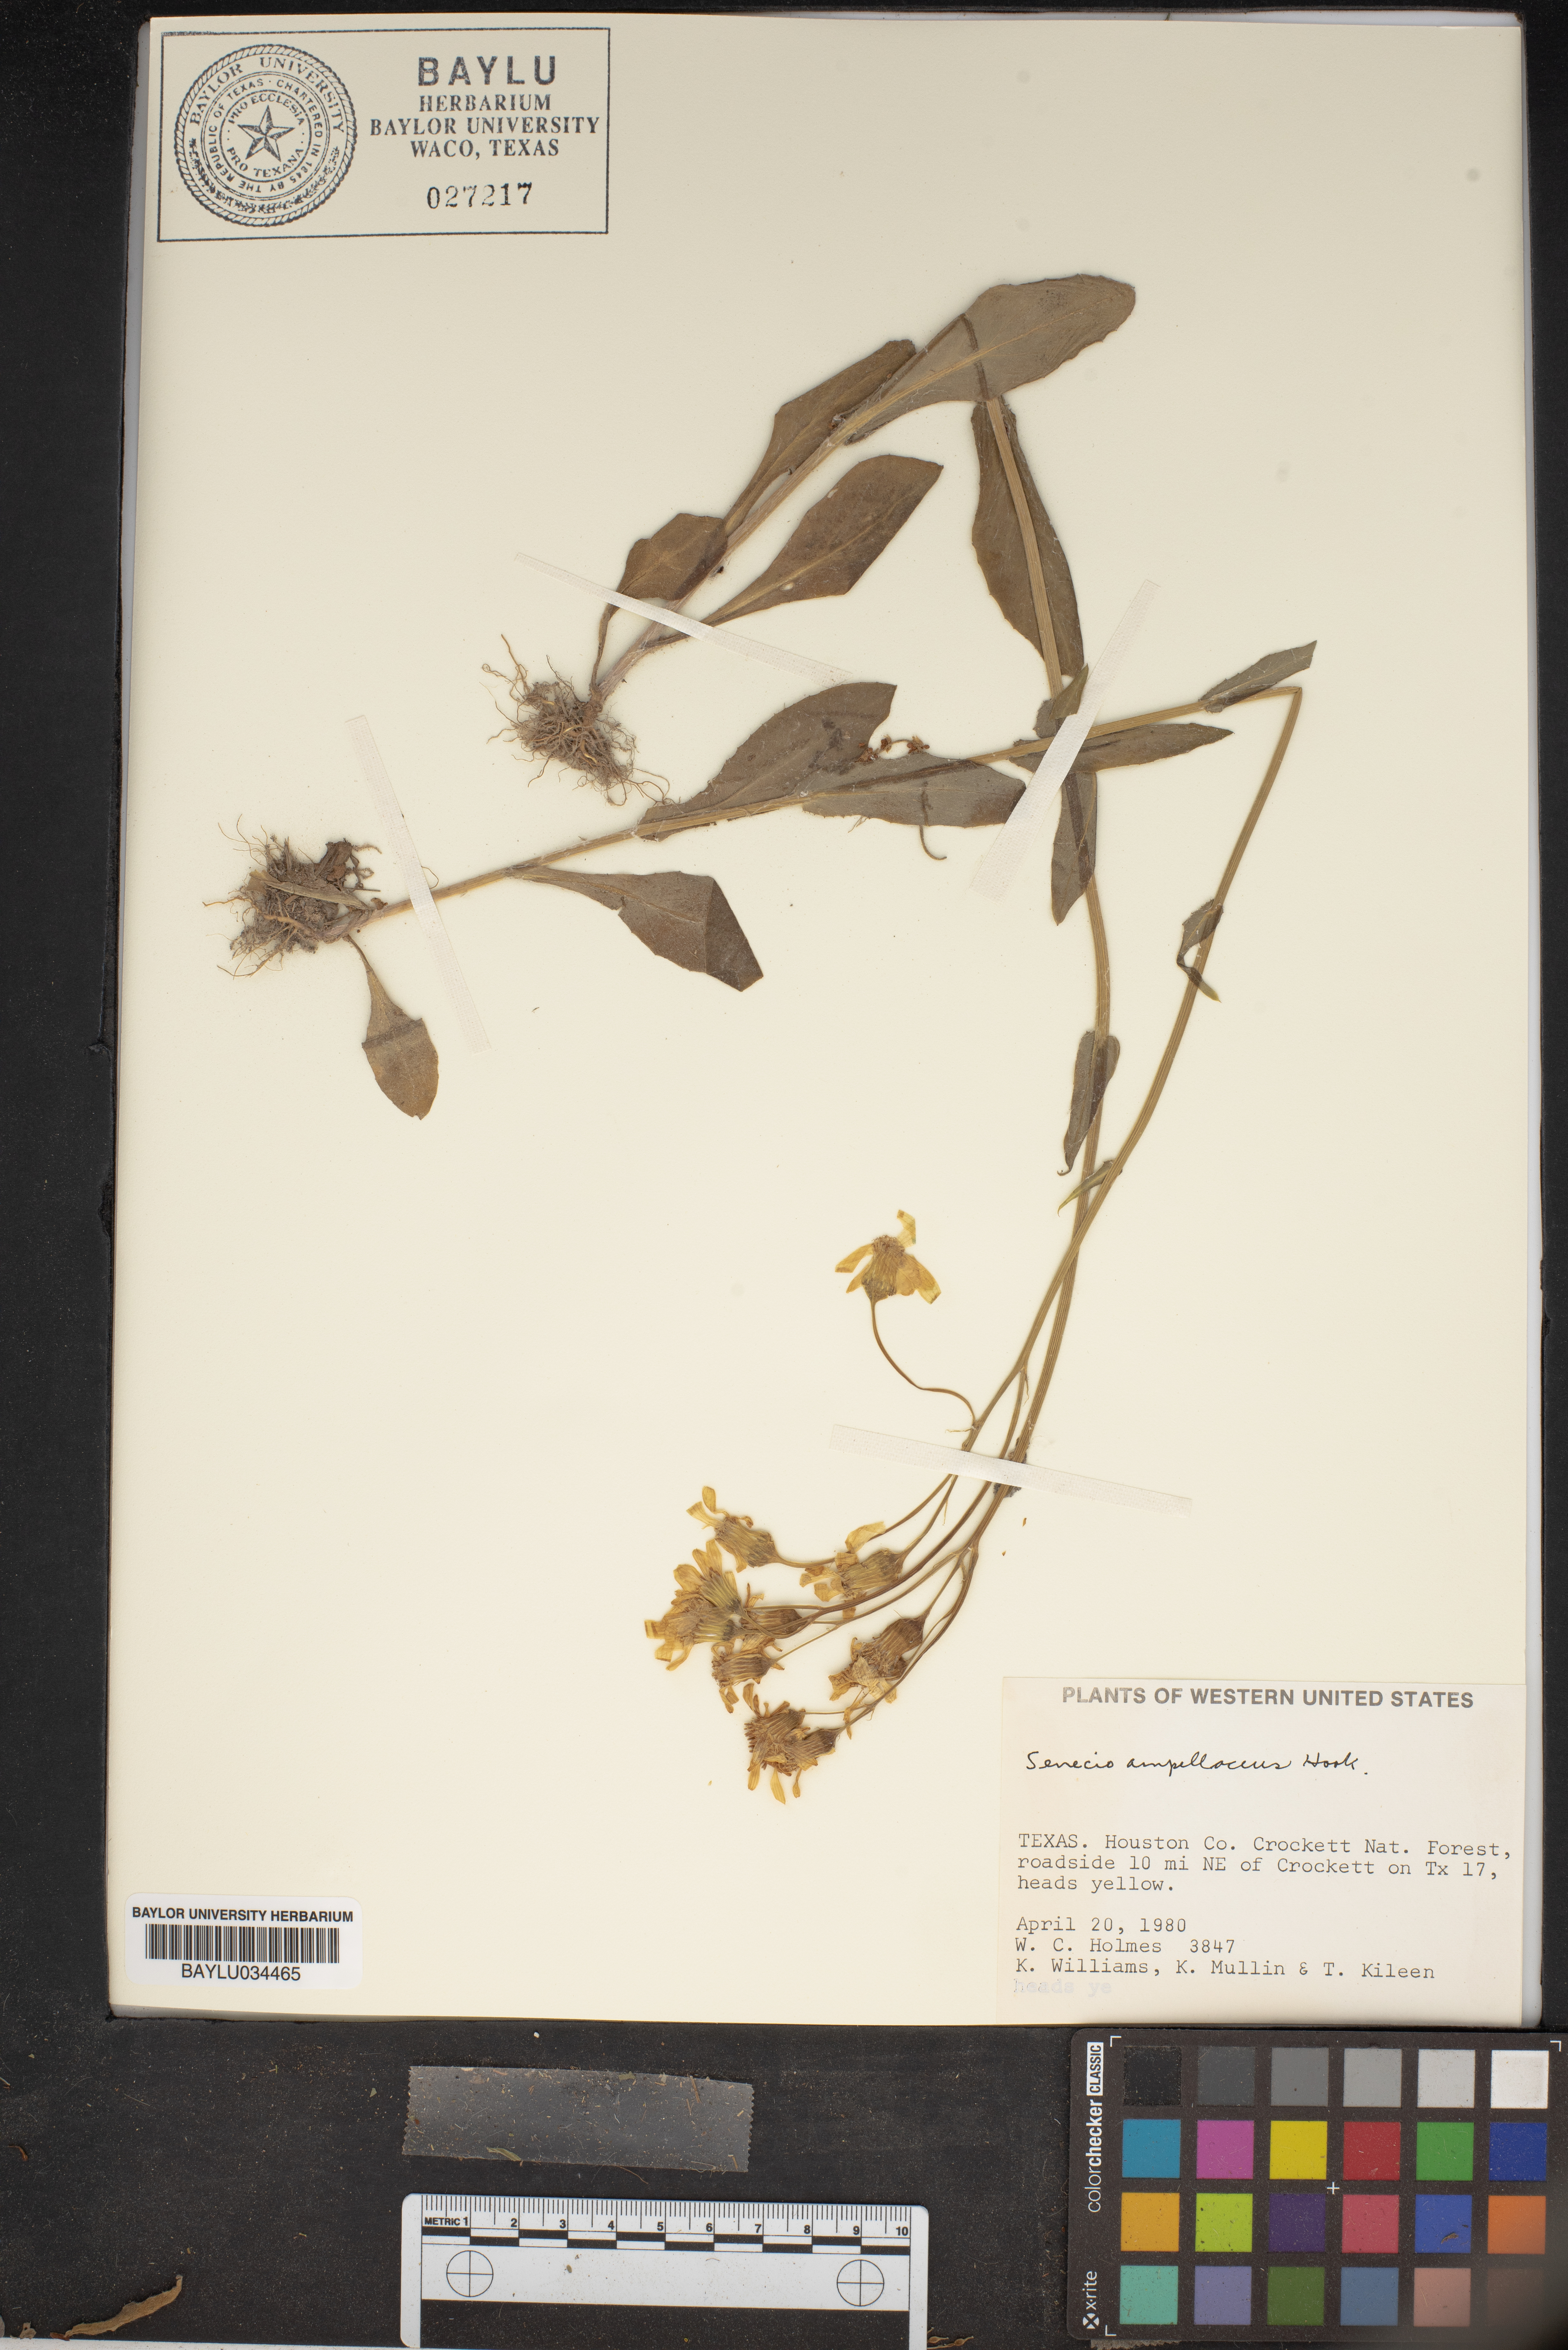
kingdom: Plantae
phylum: Tracheophyta
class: Magnoliopsida
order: Asterales
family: Asteraceae
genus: Senecio
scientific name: Senecio ampullaceus
